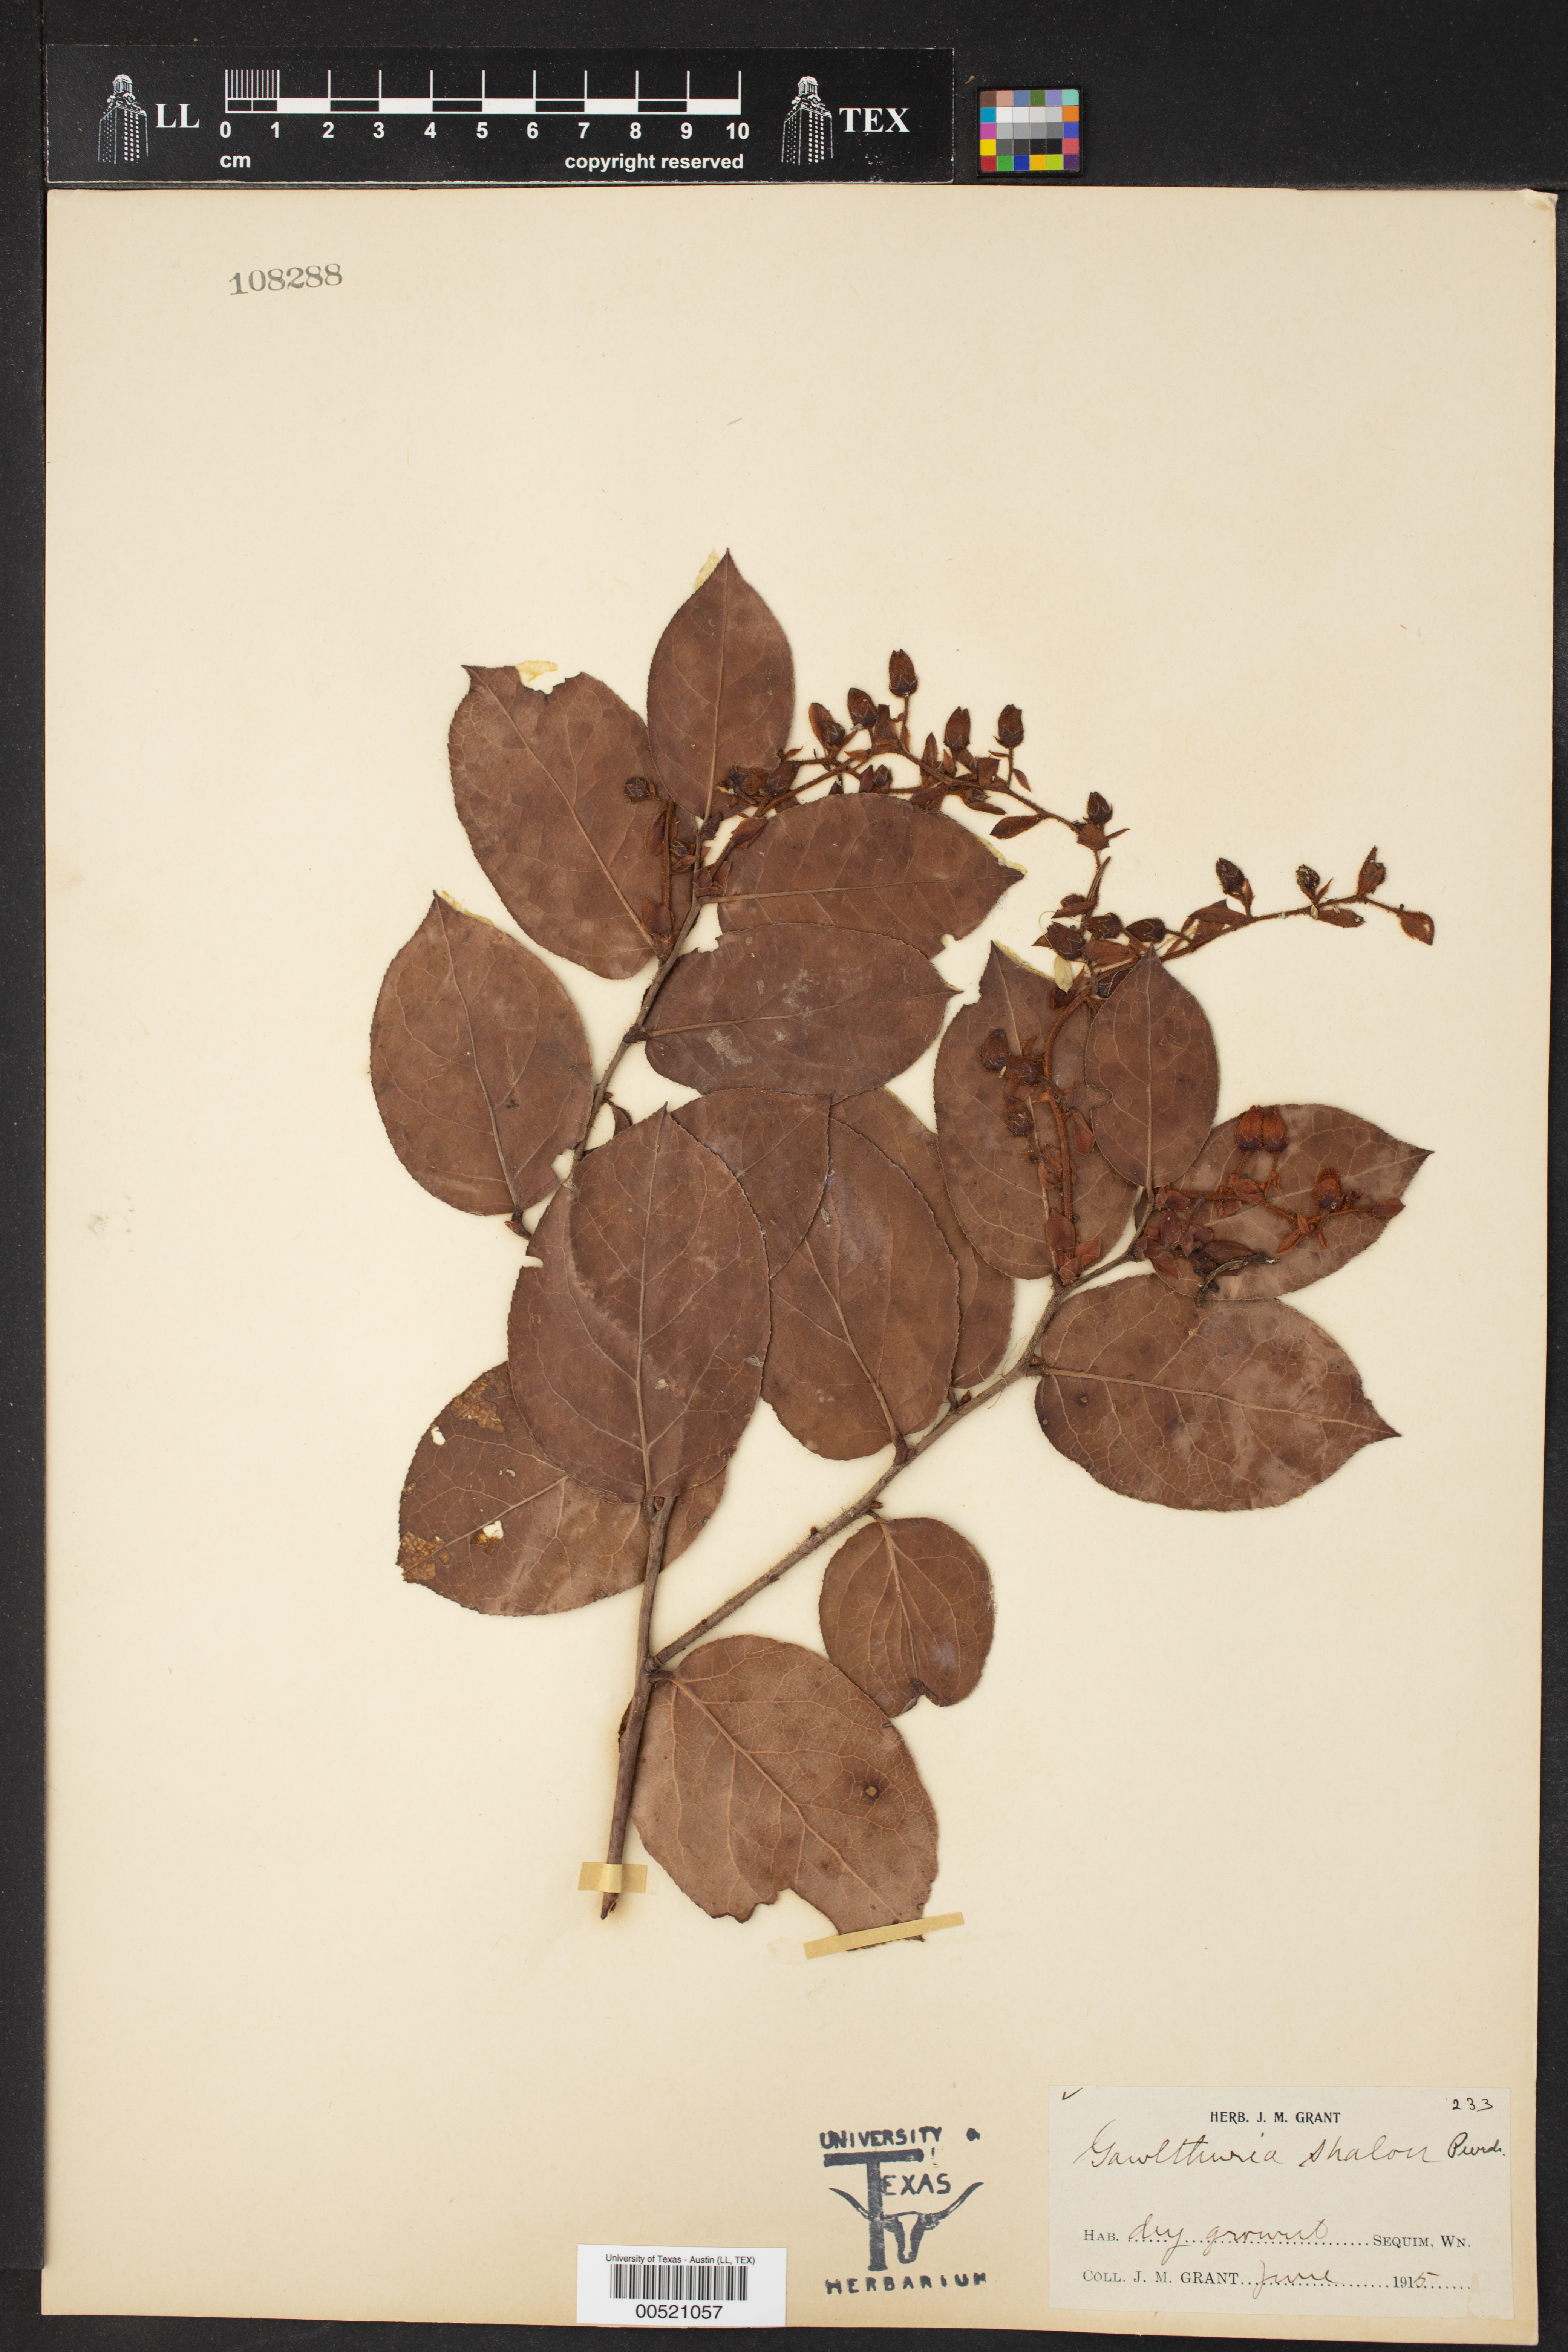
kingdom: Plantae
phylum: Tracheophyta
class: Magnoliopsida
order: Ericales
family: Ericaceae
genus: Gaultheria
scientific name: Gaultheria shallon
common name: Shallon
